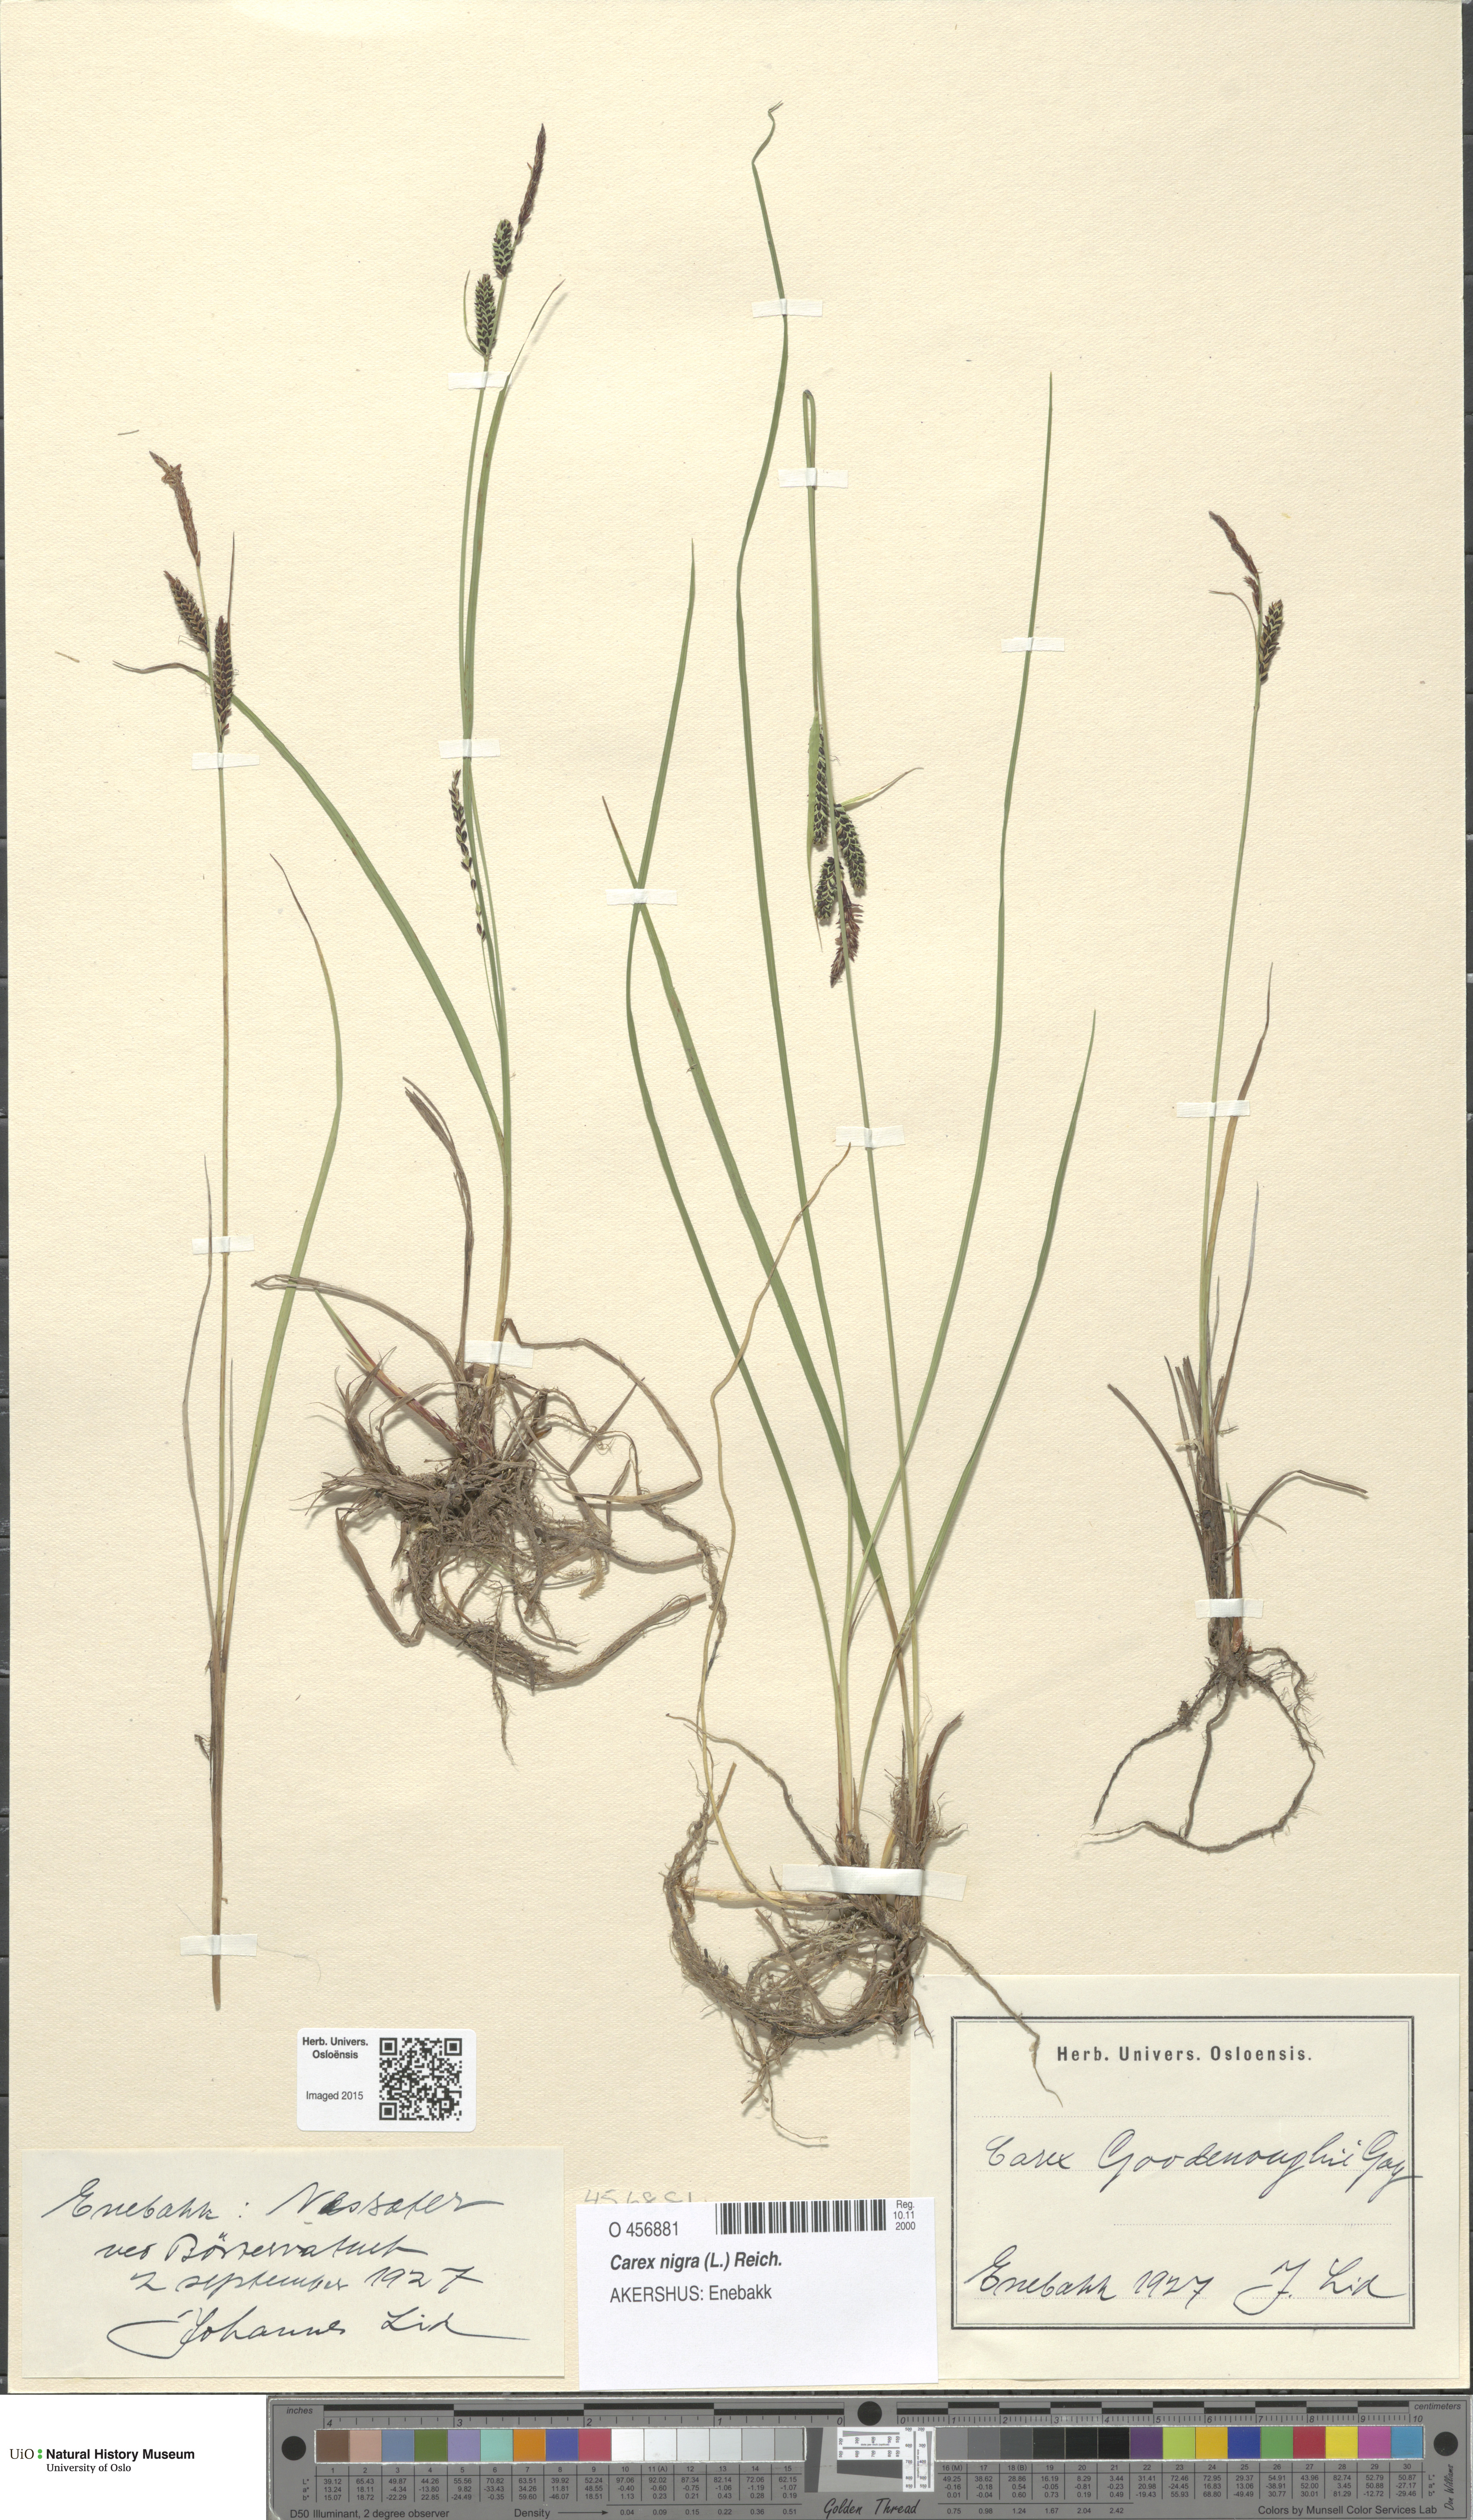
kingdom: Plantae
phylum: Tracheophyta
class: Liliopsida
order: Poales
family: Cyperaceae
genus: Carex
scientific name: Carex nigra
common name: Common sedge
